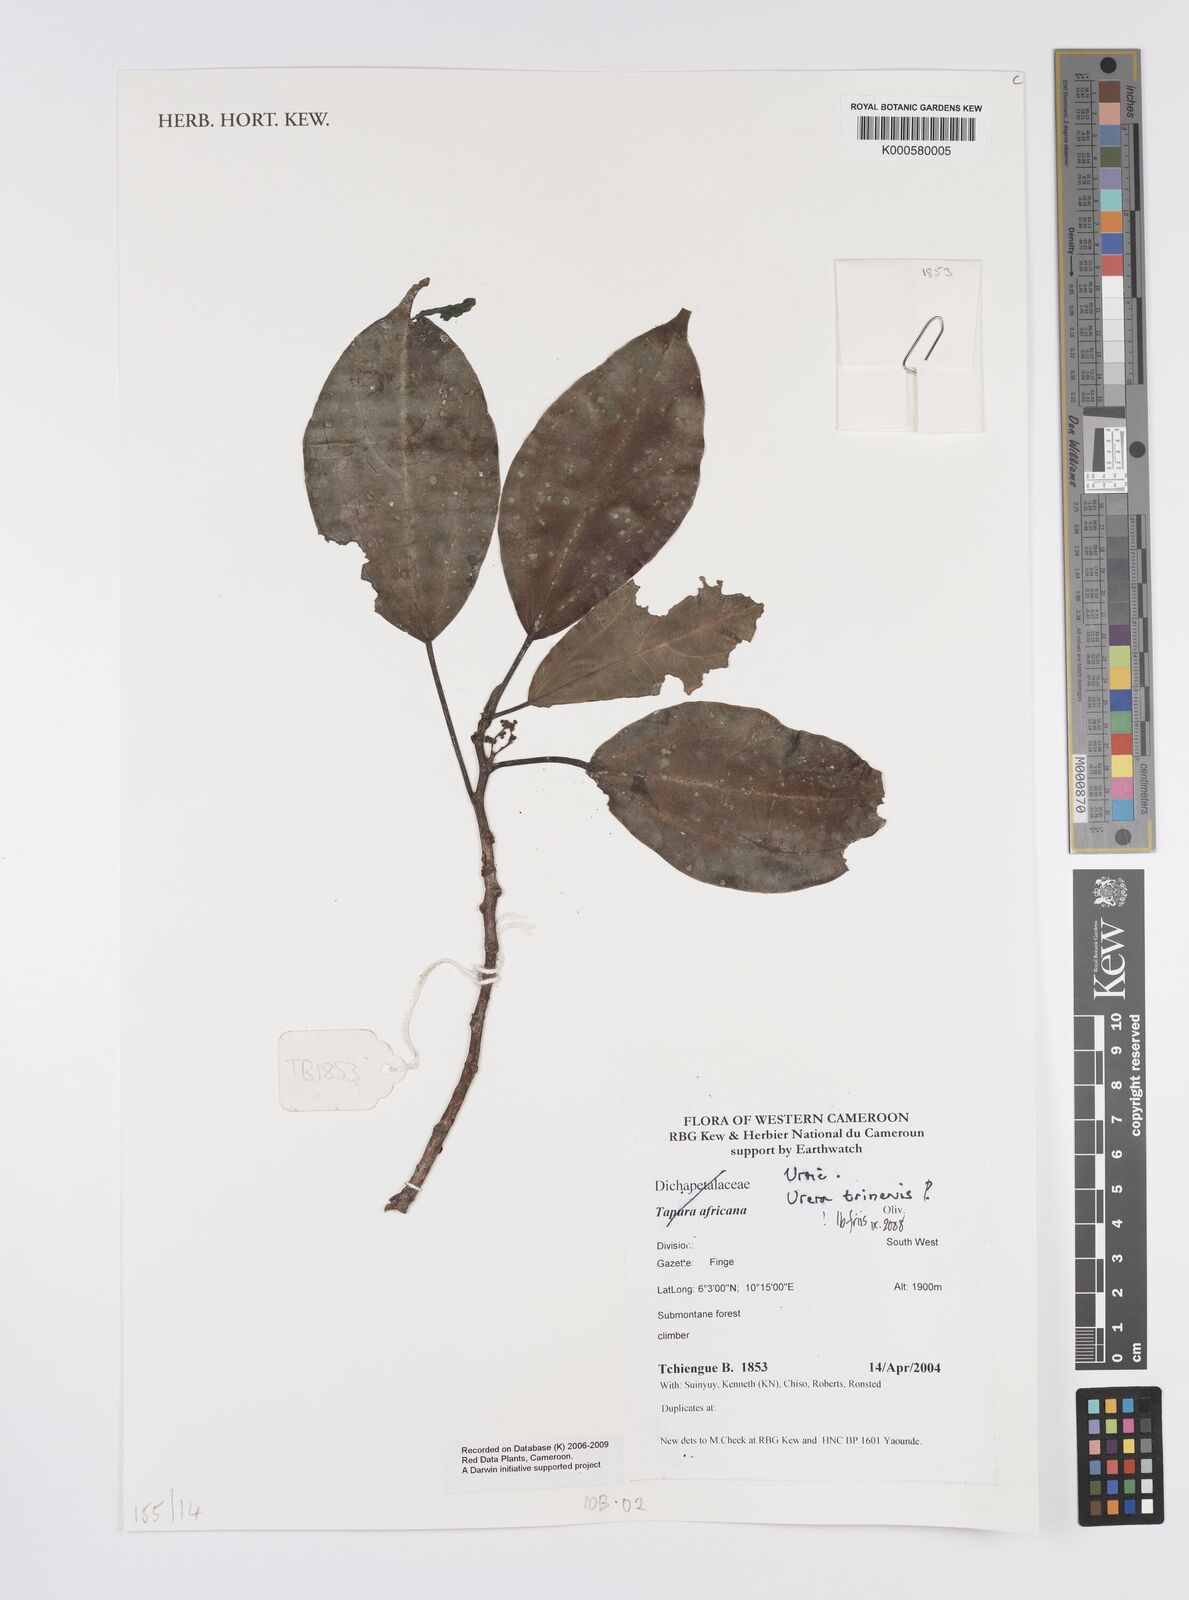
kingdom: Plantae
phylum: Tracheophyta
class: Magnoliopsida
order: Rosales
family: Urticaceae
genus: Scepocarpus
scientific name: Scepocarpus trinervis
